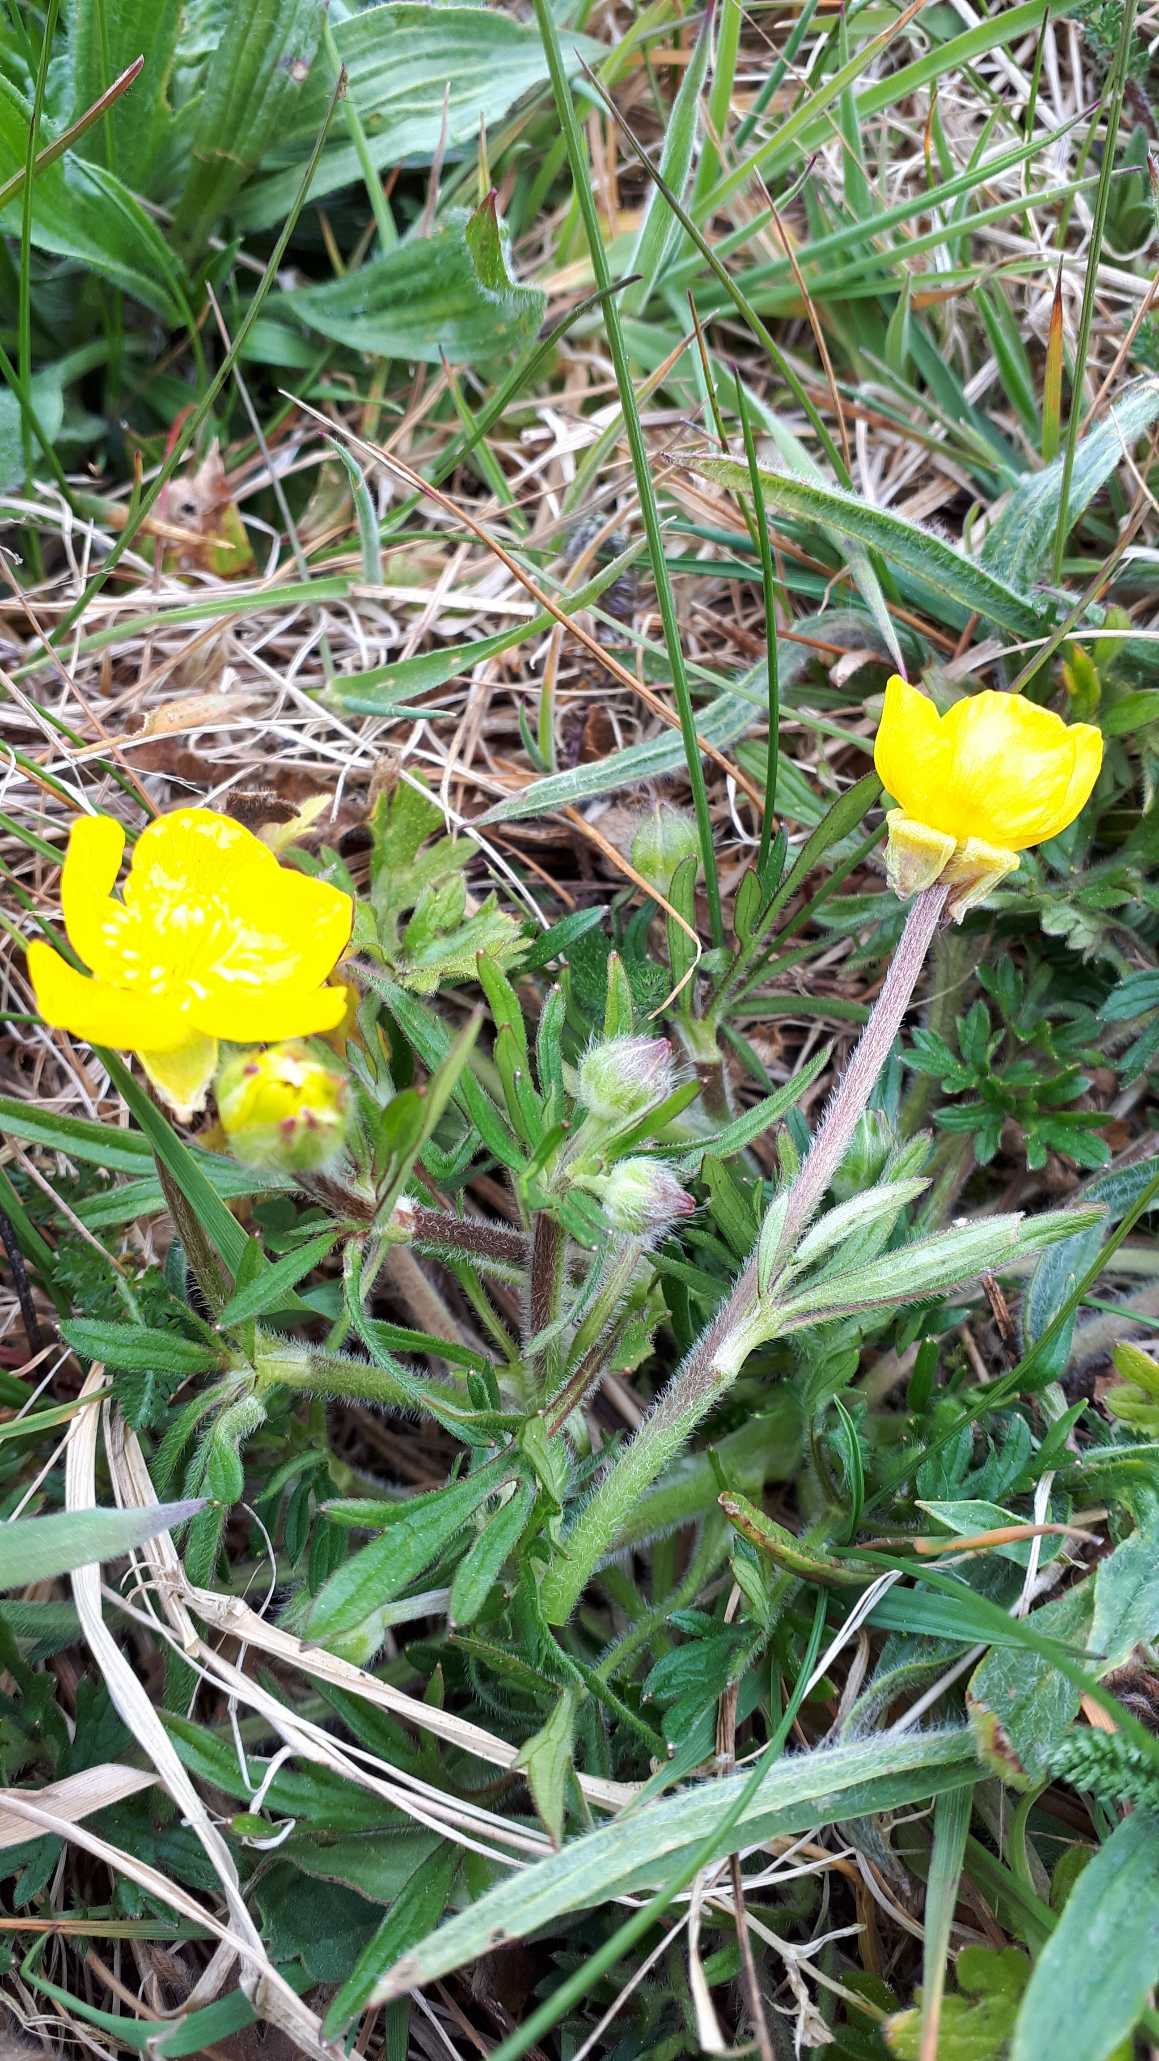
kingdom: Plantae
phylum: Tracheophyta
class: Magnoliopsida
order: Ranunculales
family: Ranunculaceae
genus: Ranunculus
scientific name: Ranunculus bulbosus
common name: Knold-ranunkel
